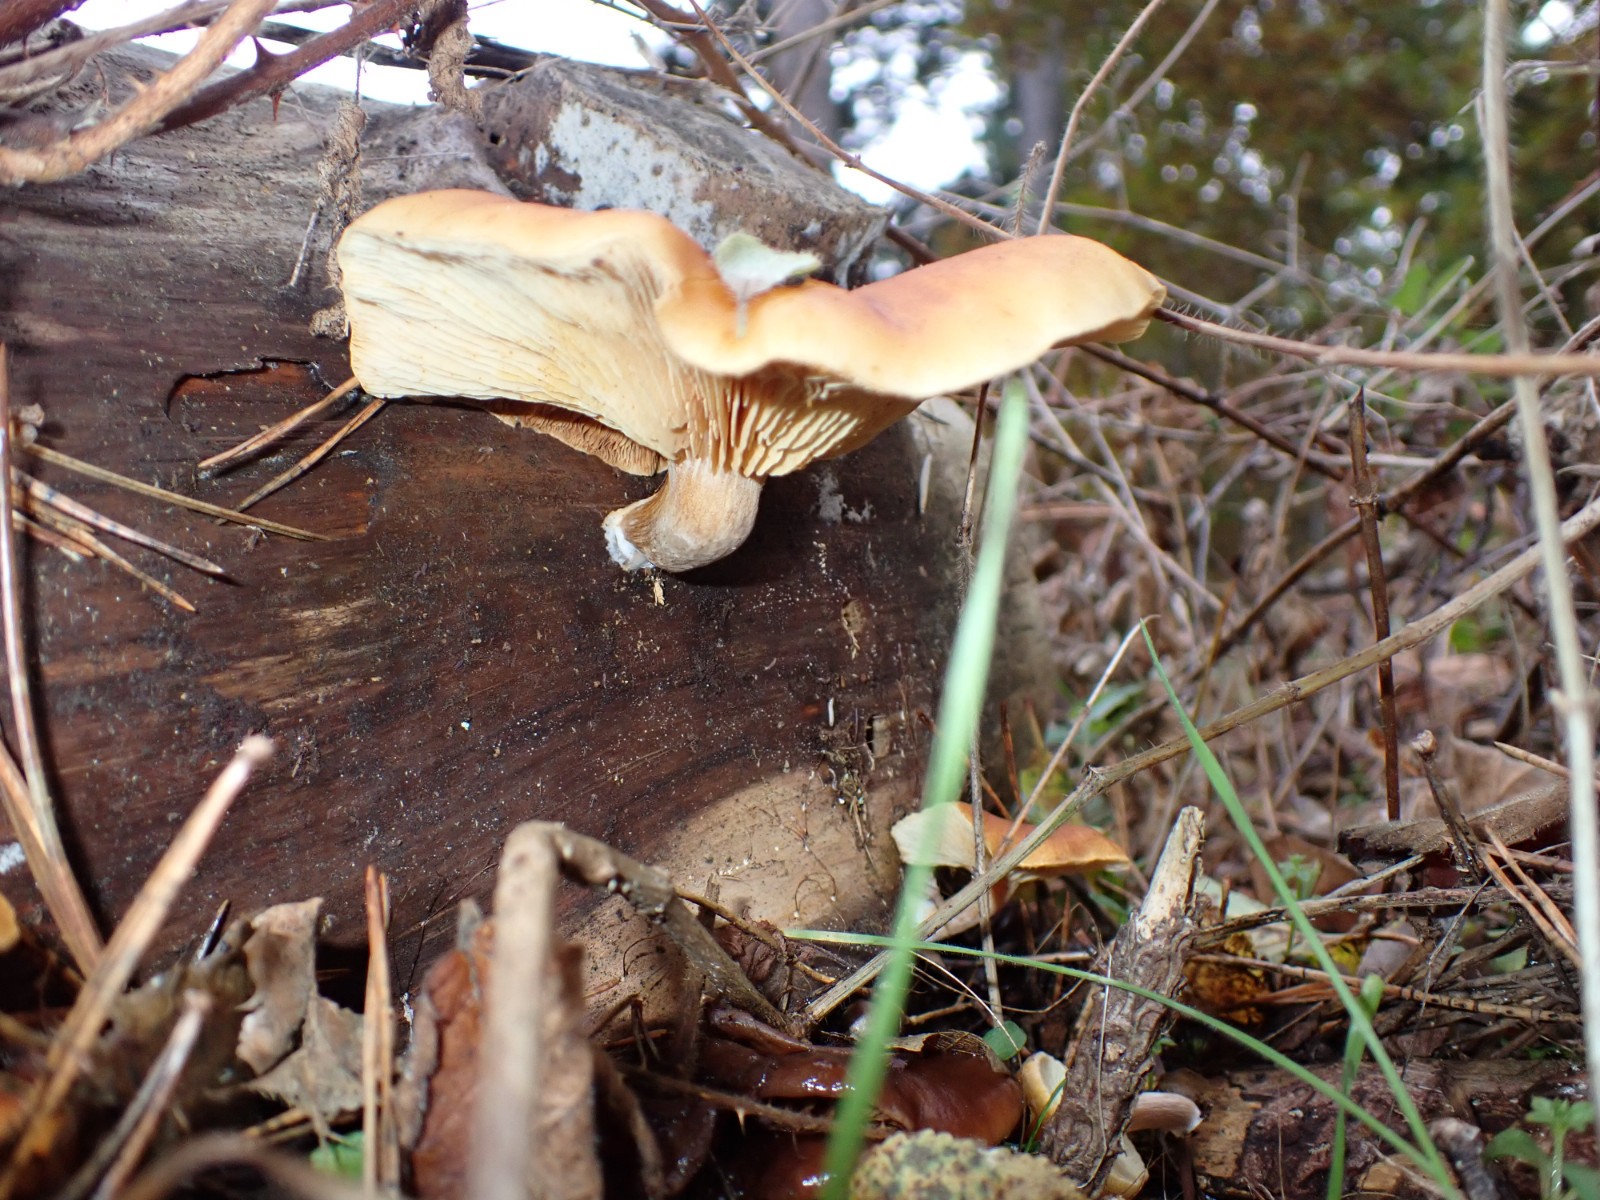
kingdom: Fungi
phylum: Basidiomycota
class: Agaricomycetes
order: Agaricales
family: Hymenogastraceae
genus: Gymnopilus
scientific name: Gymnopilus penetrans
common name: plettet flammehat
